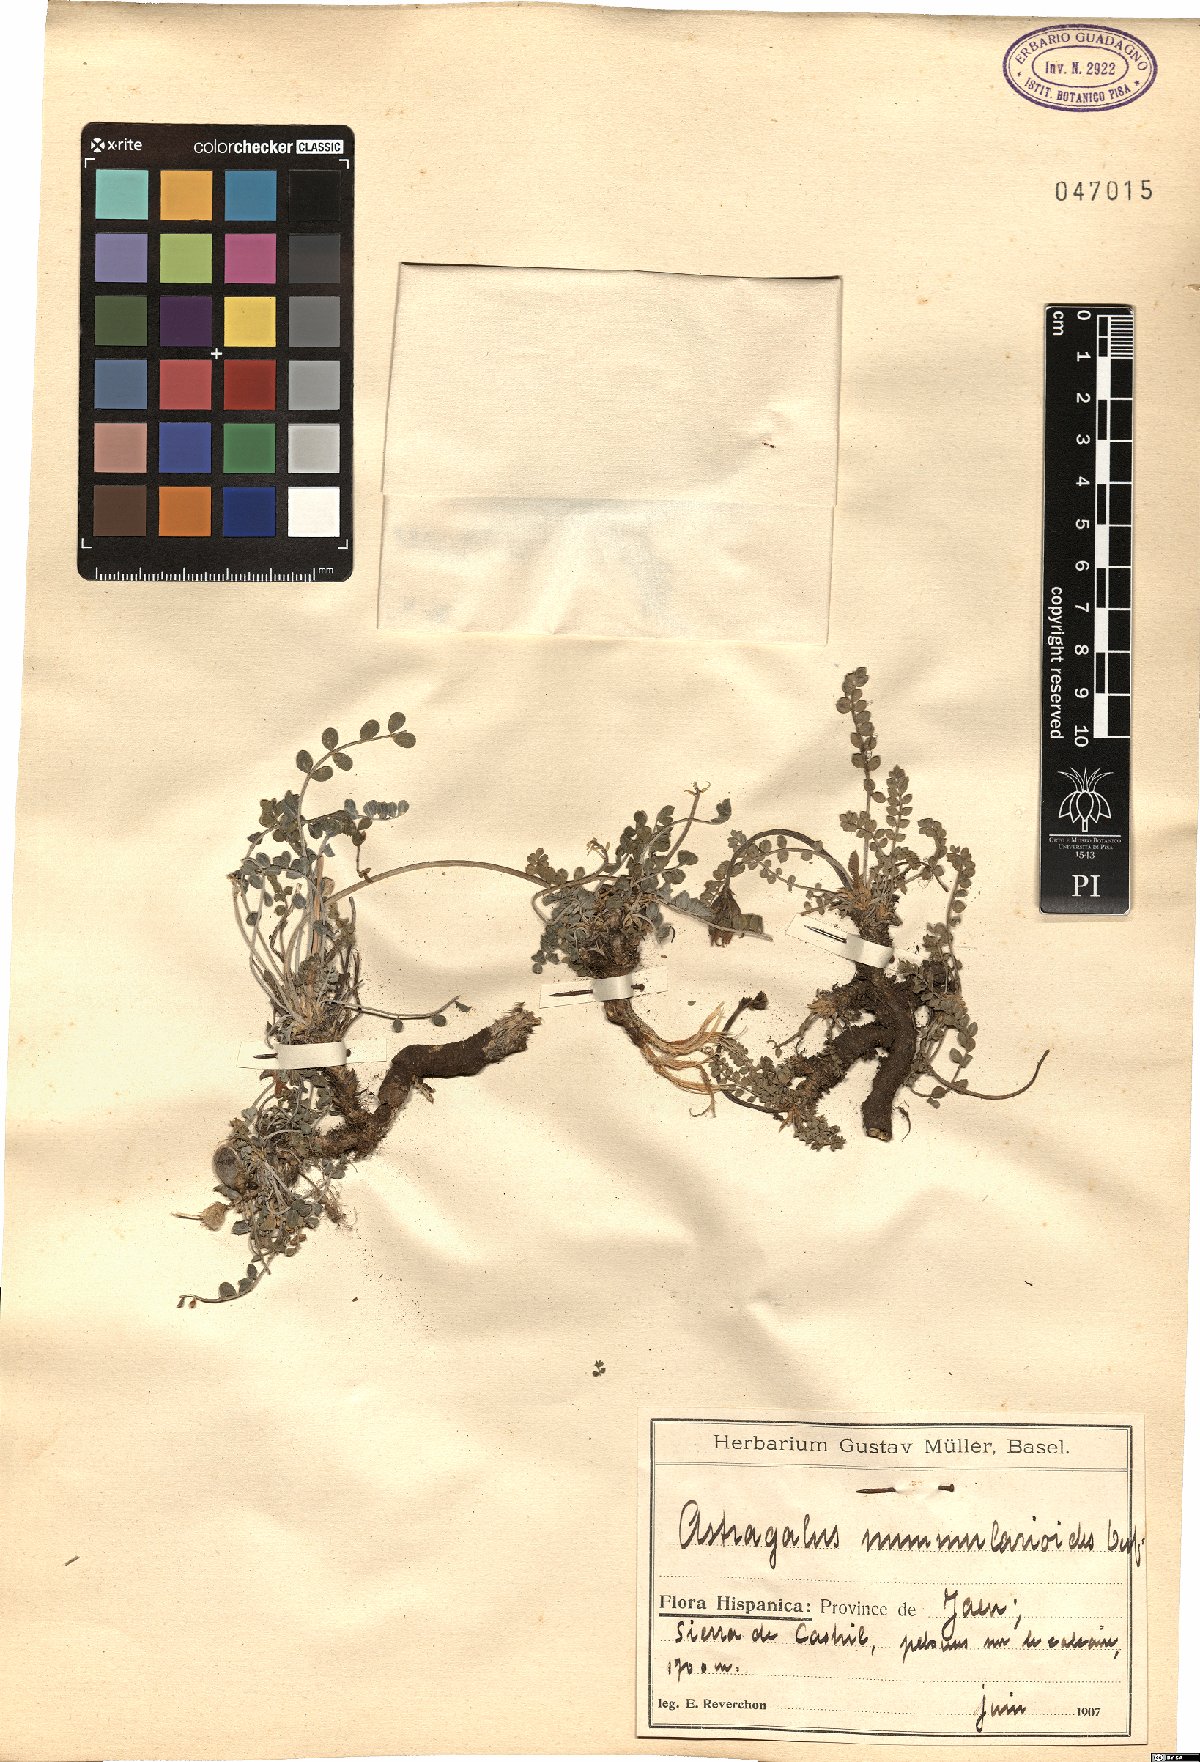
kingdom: Plantae
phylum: Tracheophyta
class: Magnoliopsida
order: Fabales
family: Fabaceae
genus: Astragalus
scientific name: Astragalus incanus
